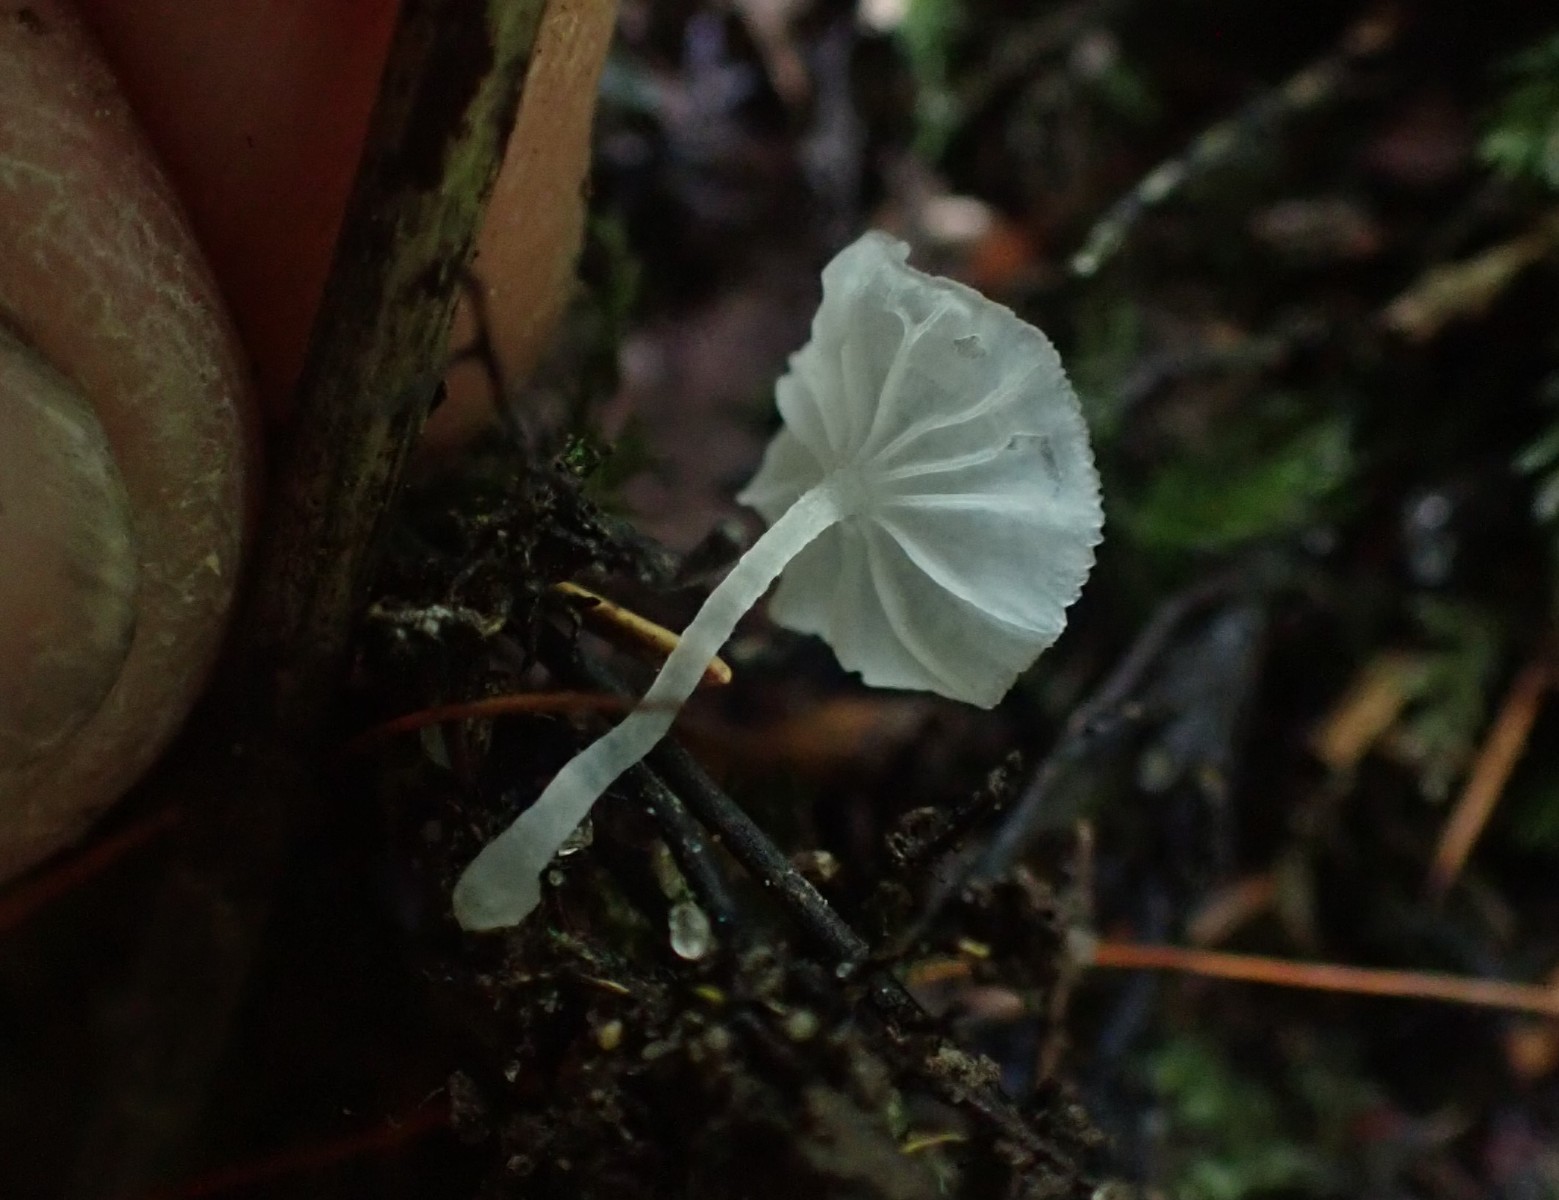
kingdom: Fungi
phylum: Basidiomycota
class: Agaricomycetes
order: Agaricales
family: Tricholomataceae
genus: Delicatula
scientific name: Delicatula integrella
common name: slørhuesvamp
